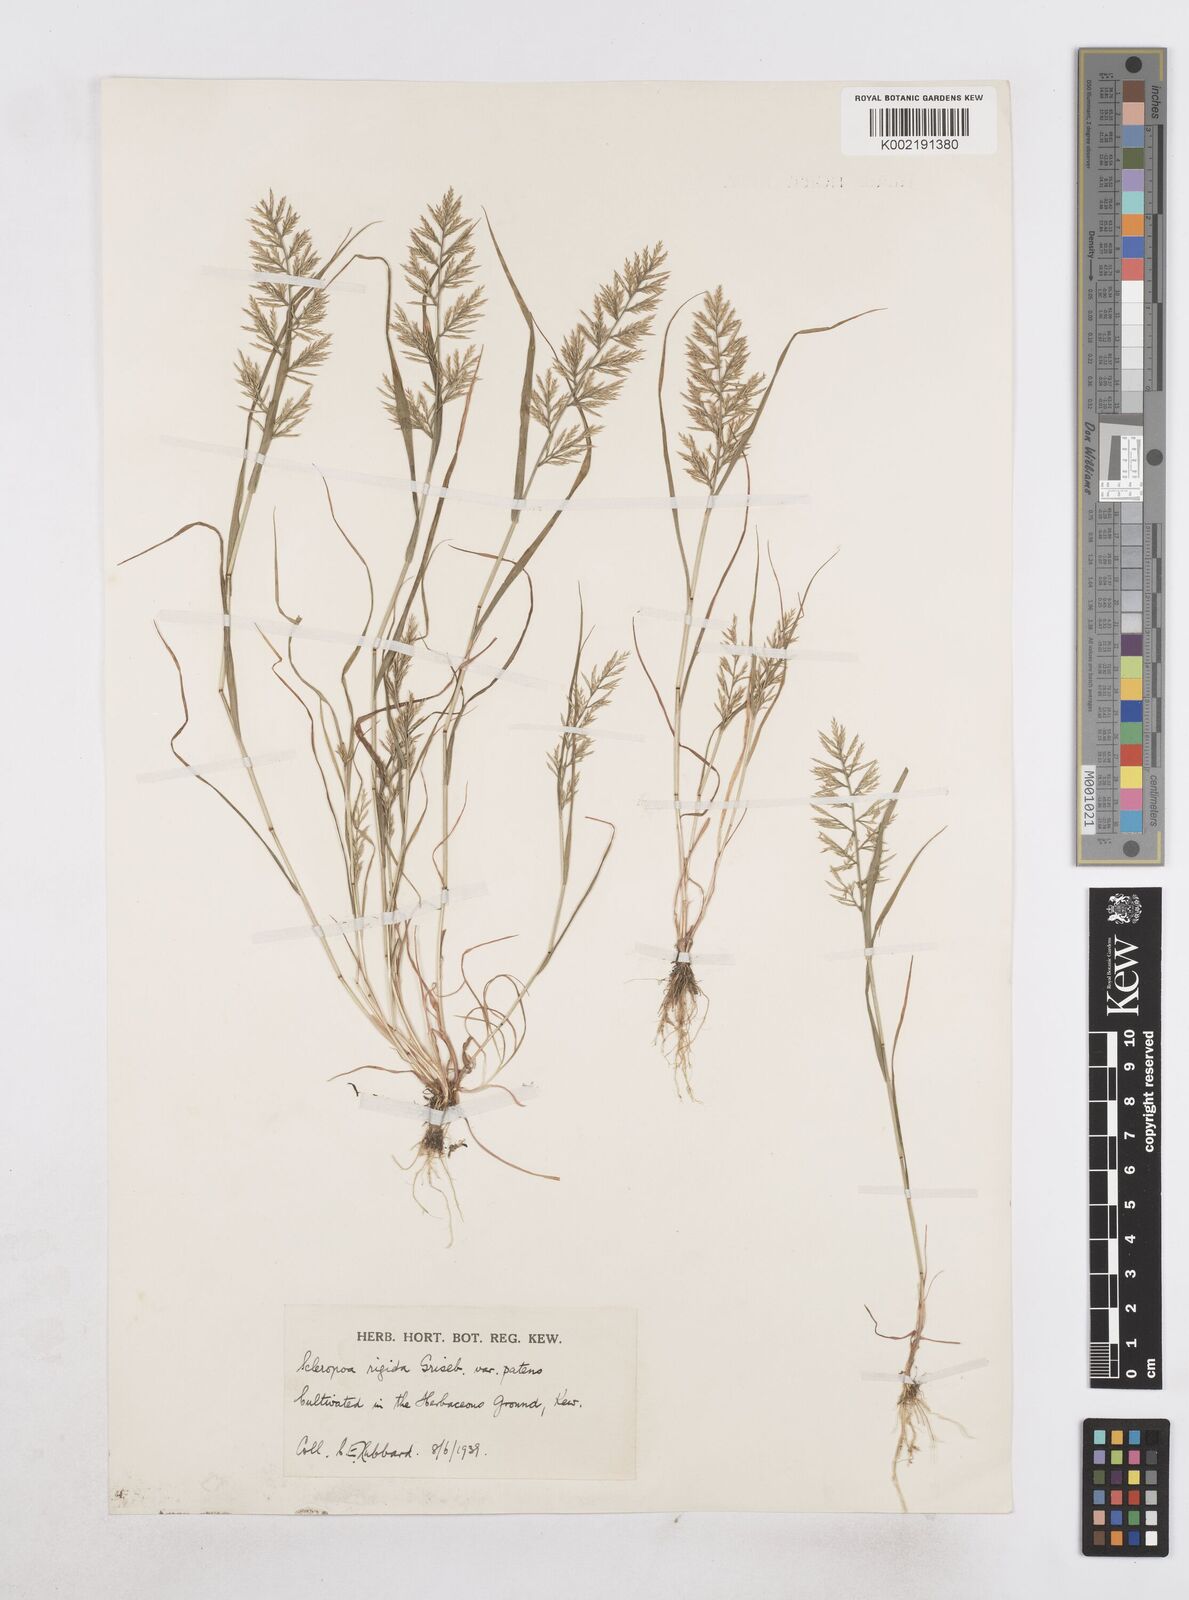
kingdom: Plantae
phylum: Tracheophyta
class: Liliopsida
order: Poales
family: Poaceae
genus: Catapodium
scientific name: Catapodium rigidum
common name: Fern-grass
